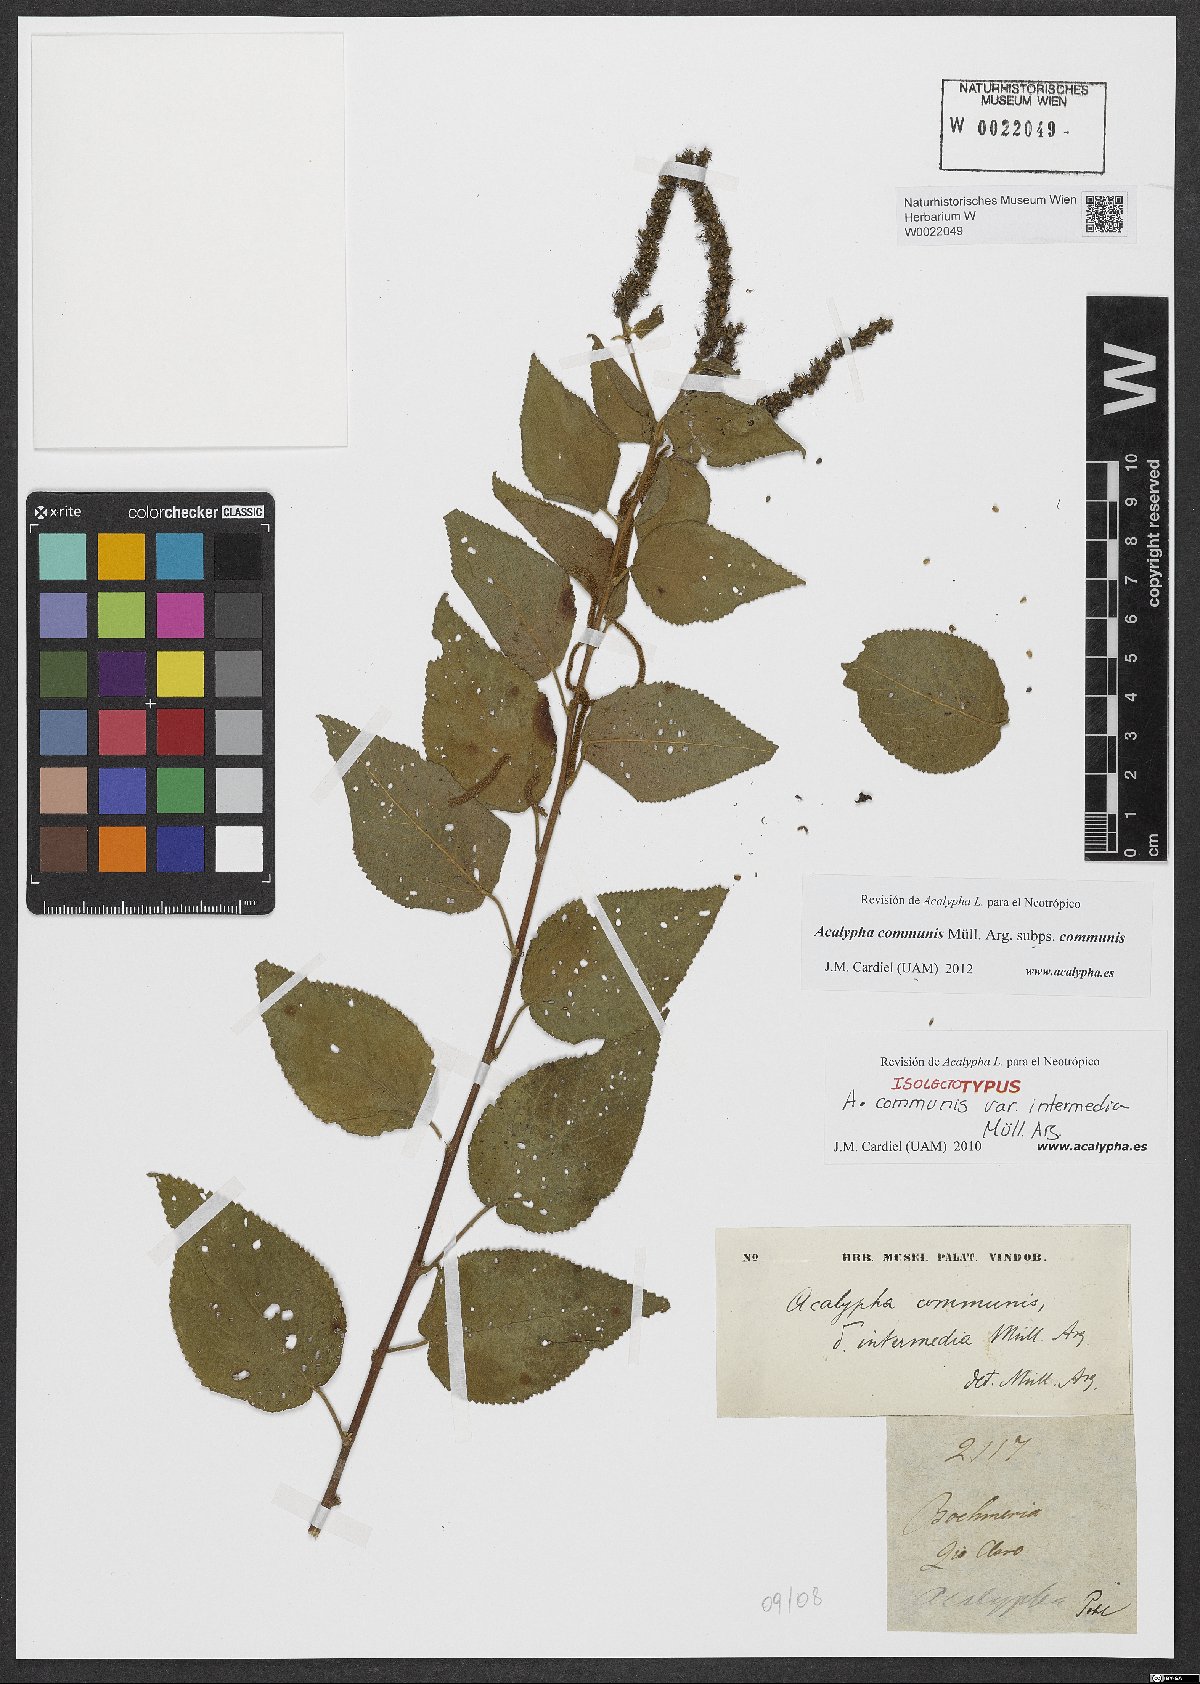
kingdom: Plantae
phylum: Tracheophyta
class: Magnoliopsida
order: Malpighiales
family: Euphorbiaceae
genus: Acalypha
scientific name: Acalypha communis
